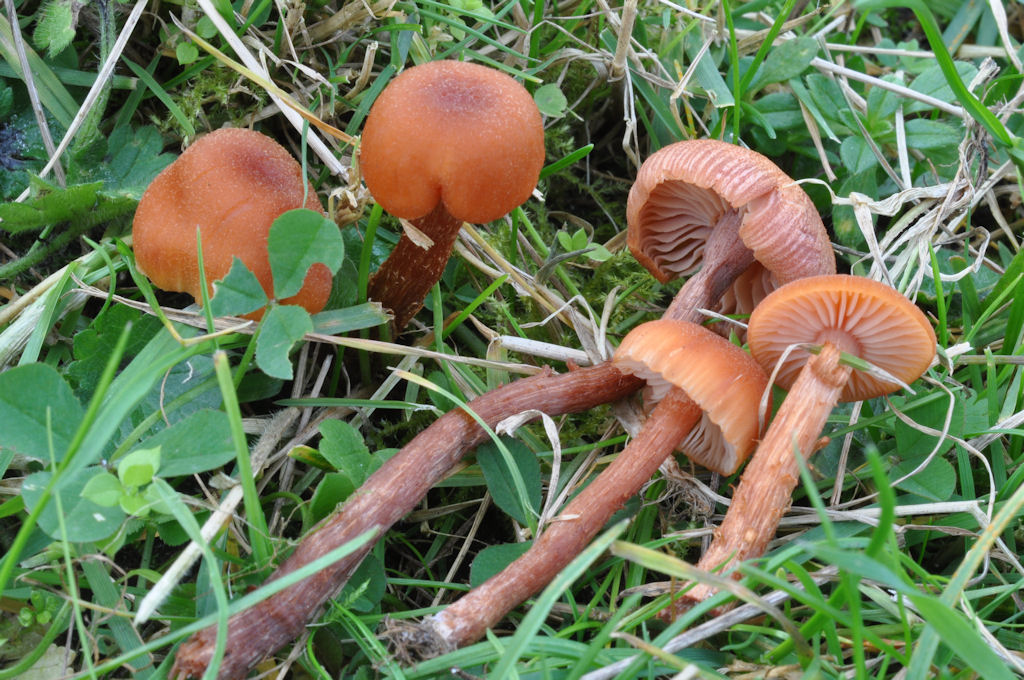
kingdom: Fungi
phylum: Basidiomycota
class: Agaricomycetes
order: Agaricales
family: Hydnangiaceae
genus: Laccaria
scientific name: Laccaria proxima
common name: stor ametysthat
